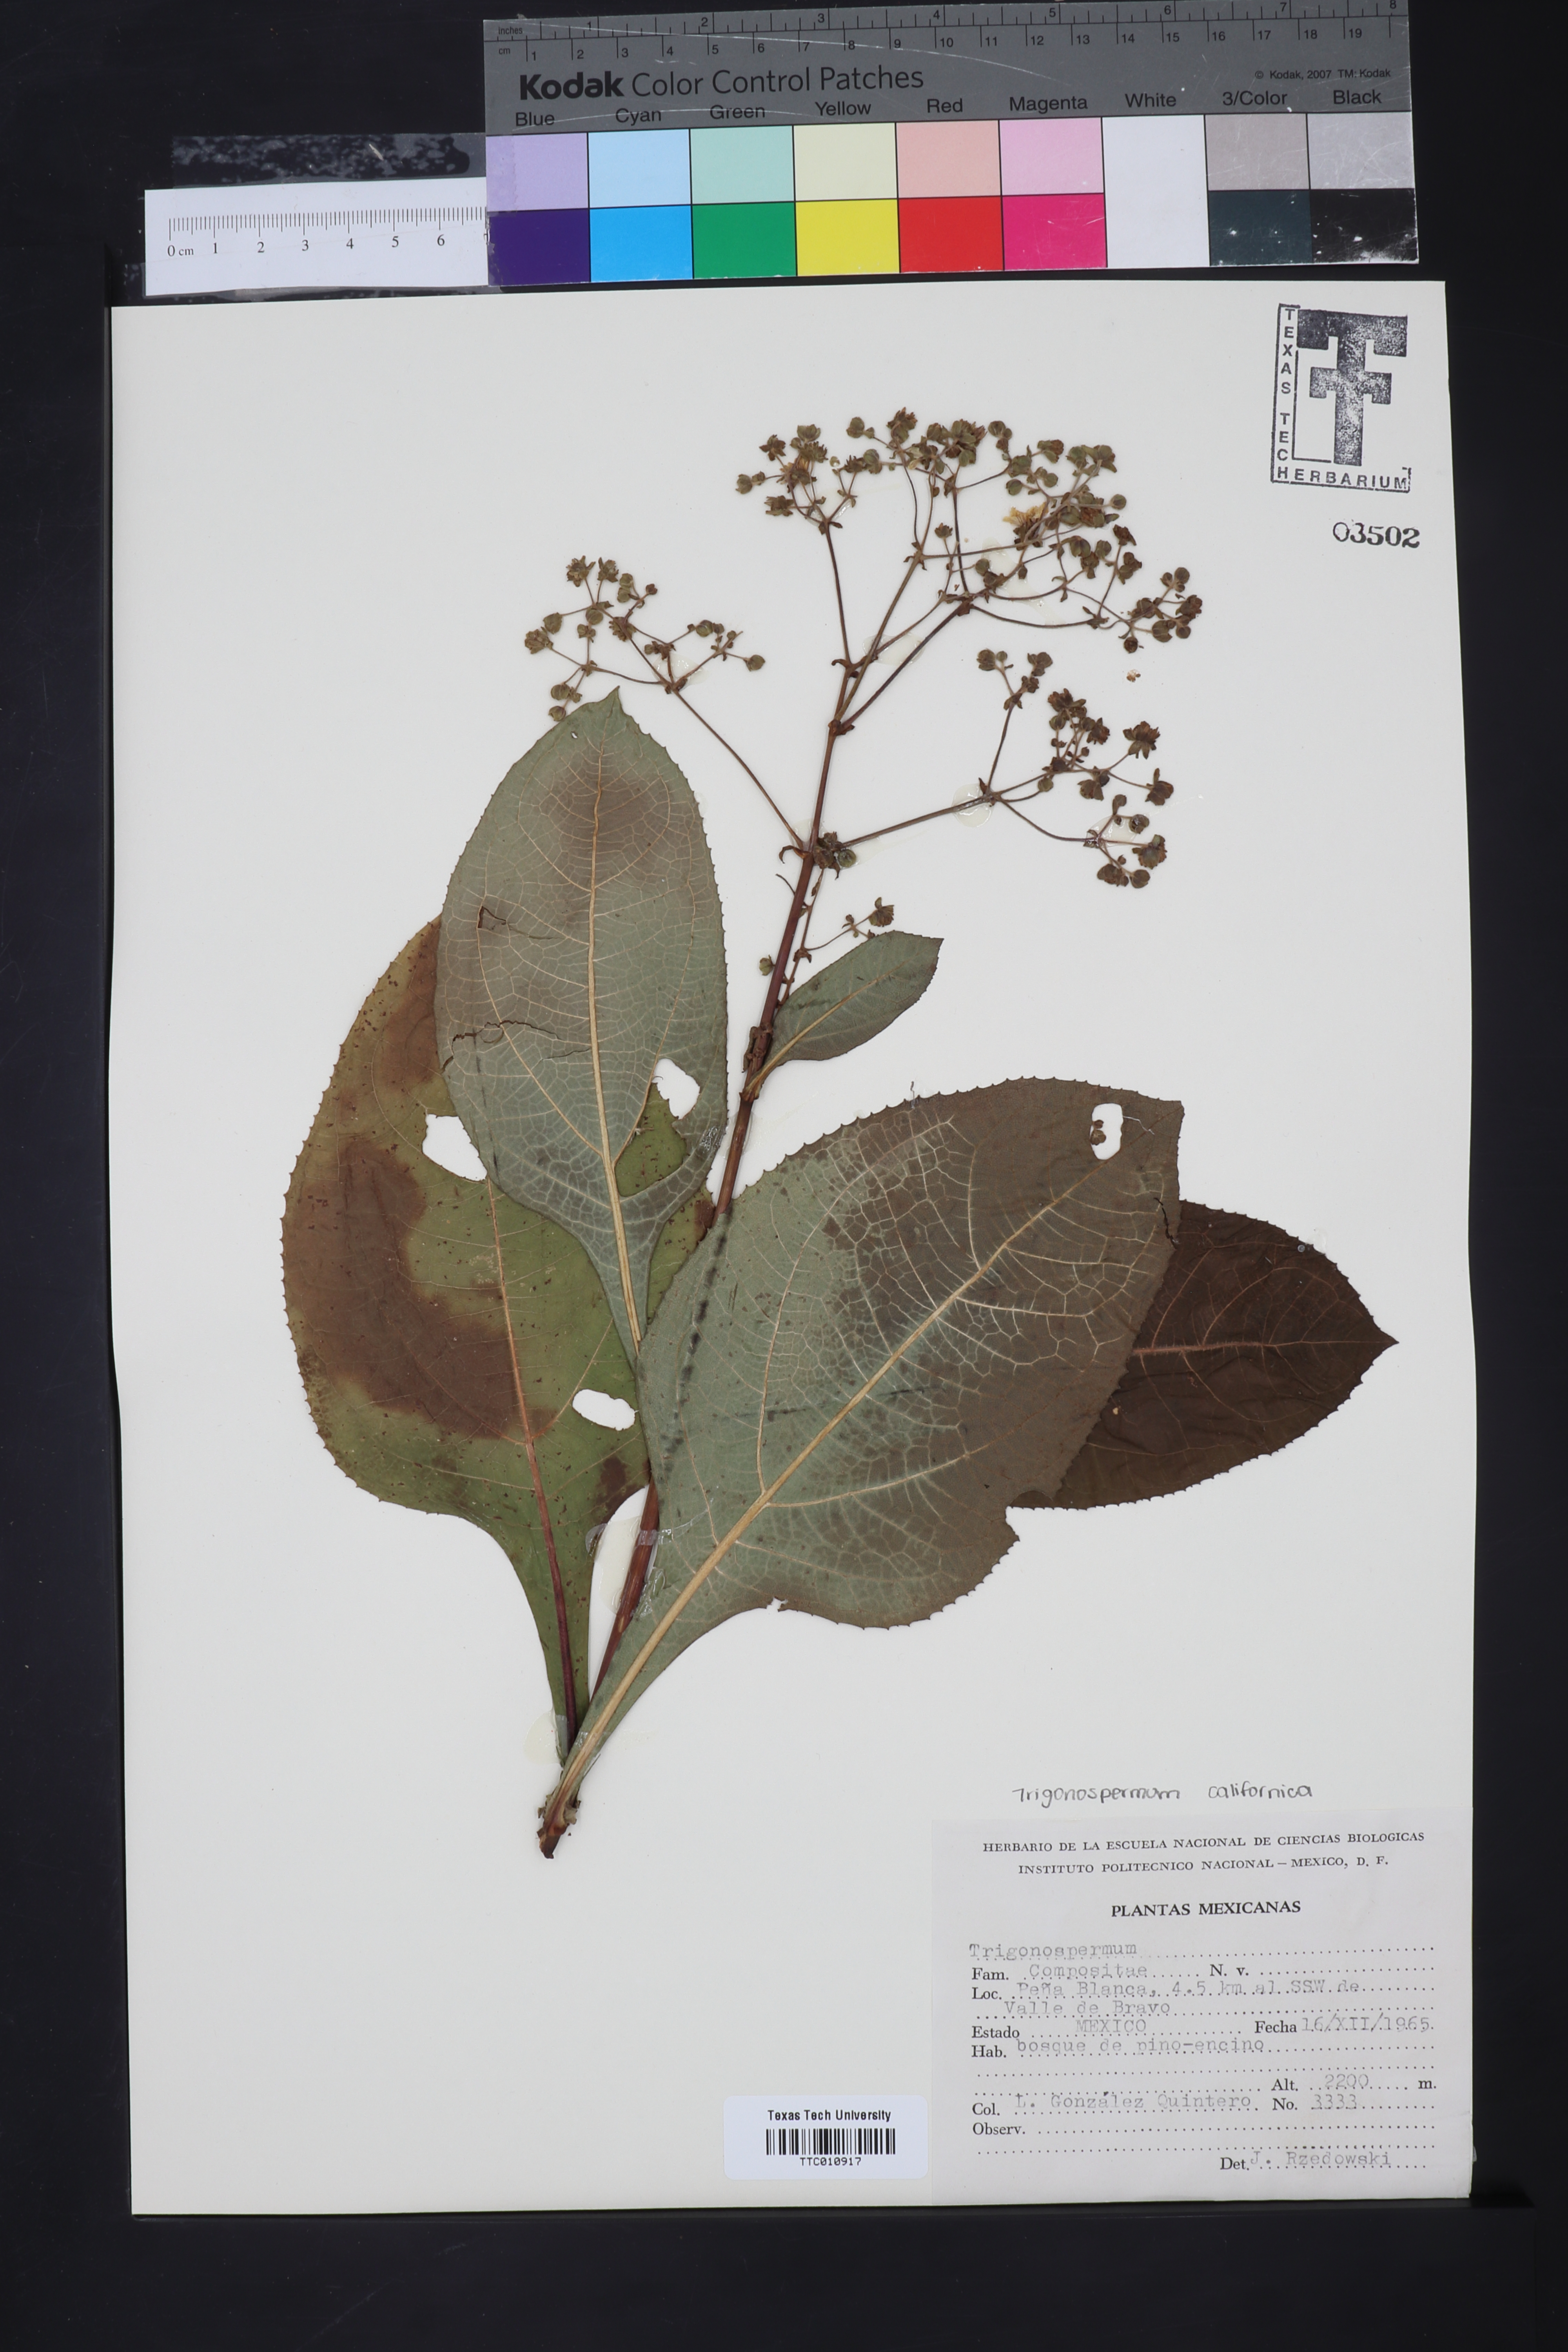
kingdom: Plantae
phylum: Tracheophyta
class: Magnoliopsida
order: Asterales
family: Asteraceae
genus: Trigonospermum
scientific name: Trigonospermum
